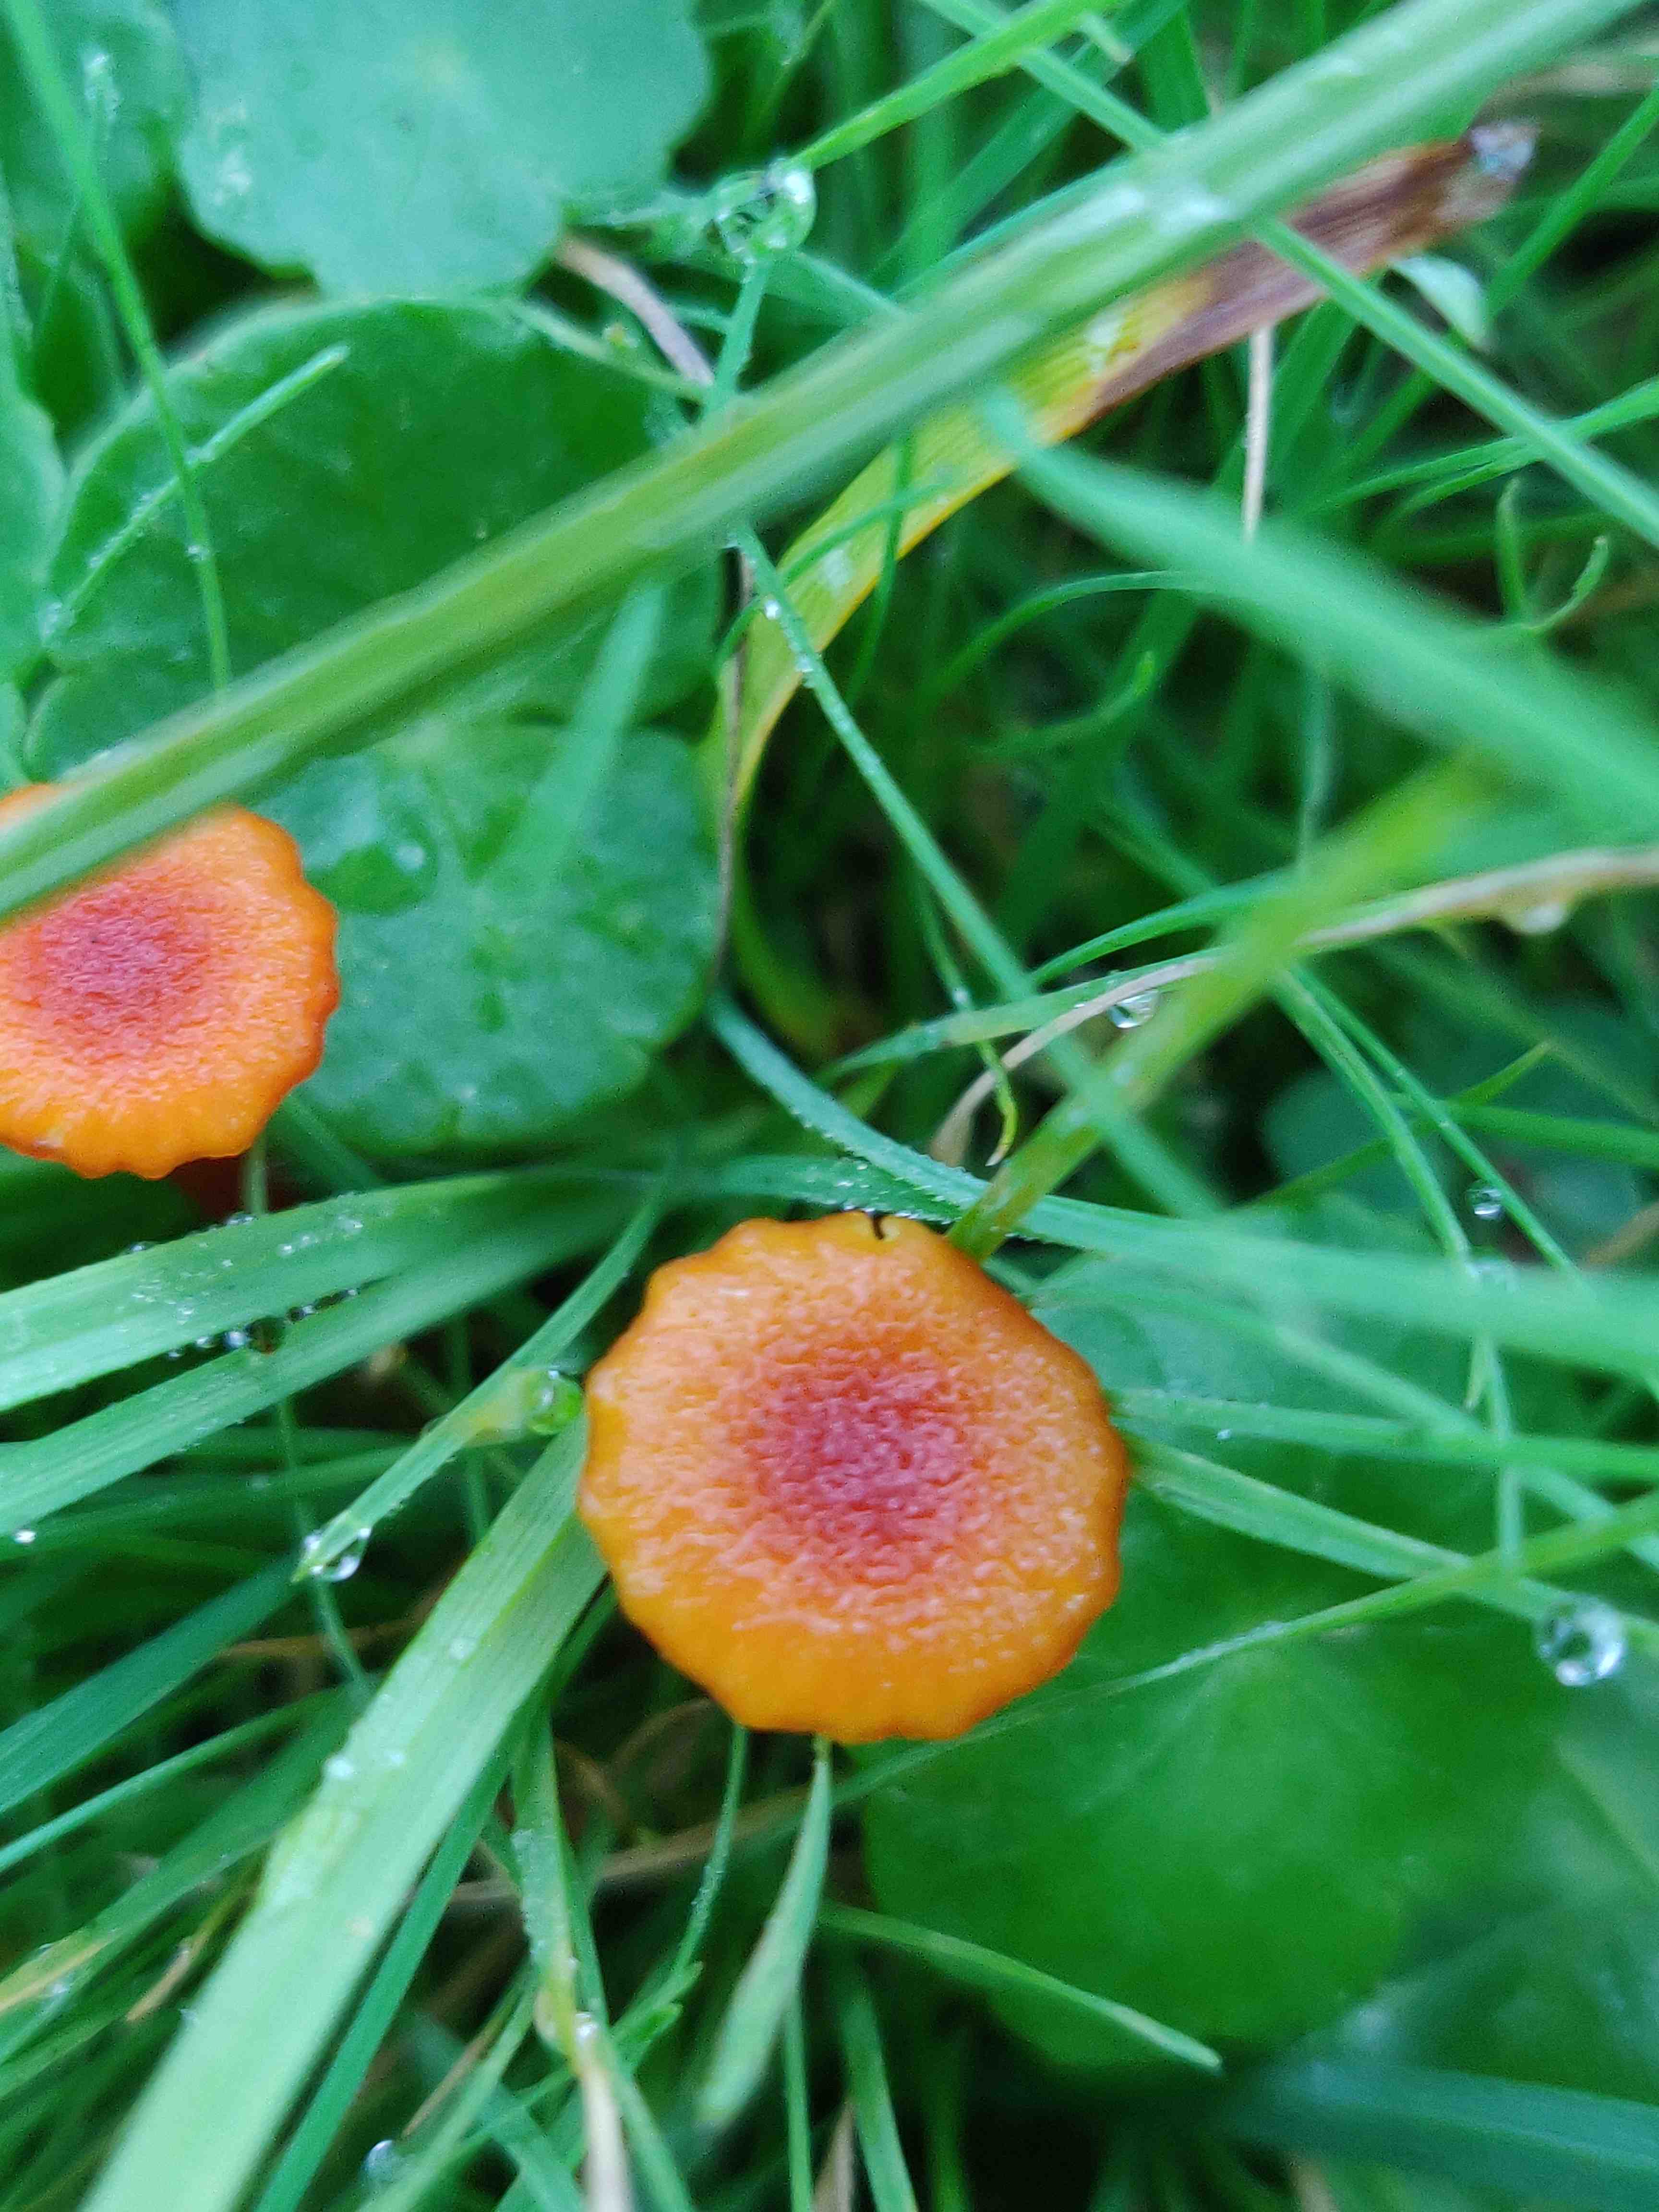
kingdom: Fungi
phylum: Basidiomycota
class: Agaricomycetes
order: Agaricales
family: Hygrophoraceae
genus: Hygrocybe
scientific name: Hygrocybe
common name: vokshat
